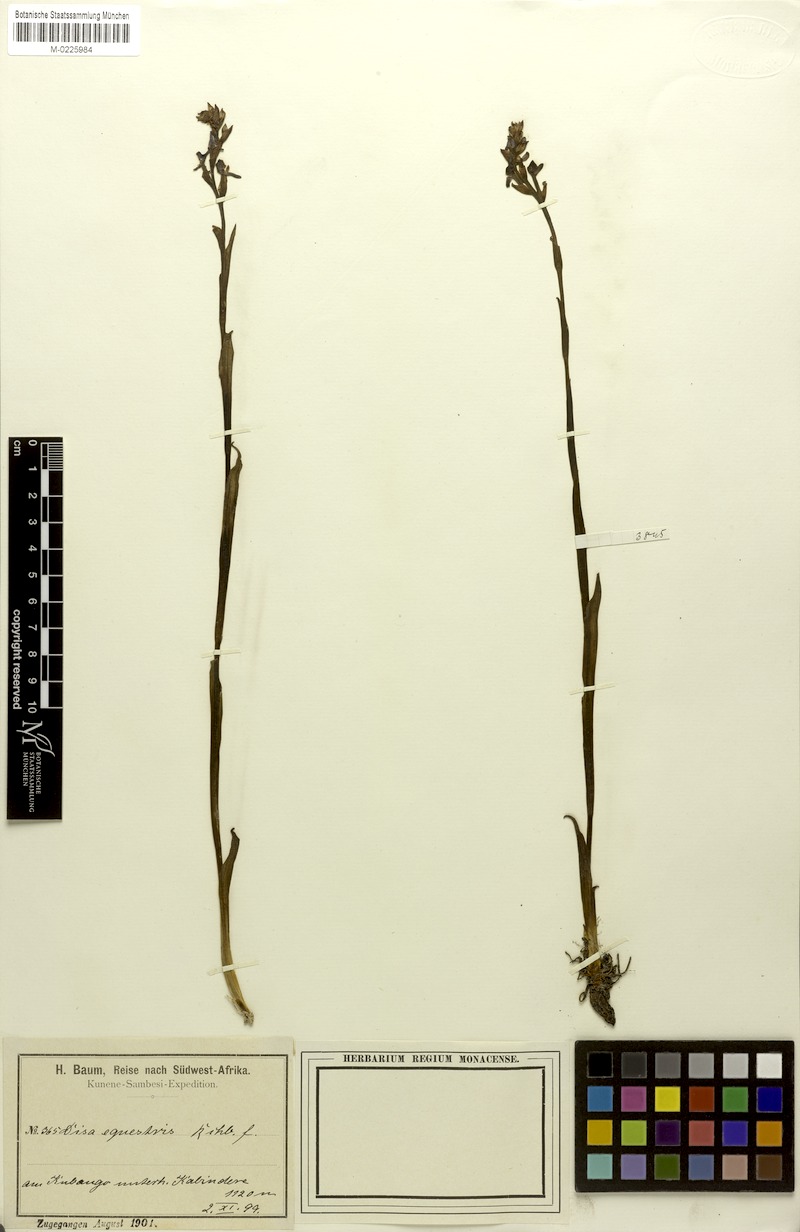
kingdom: Plantae
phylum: Tracheophyta
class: Liliopsida
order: Asparagales
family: Orchidaceae
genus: Disa
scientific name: Disa equestris
